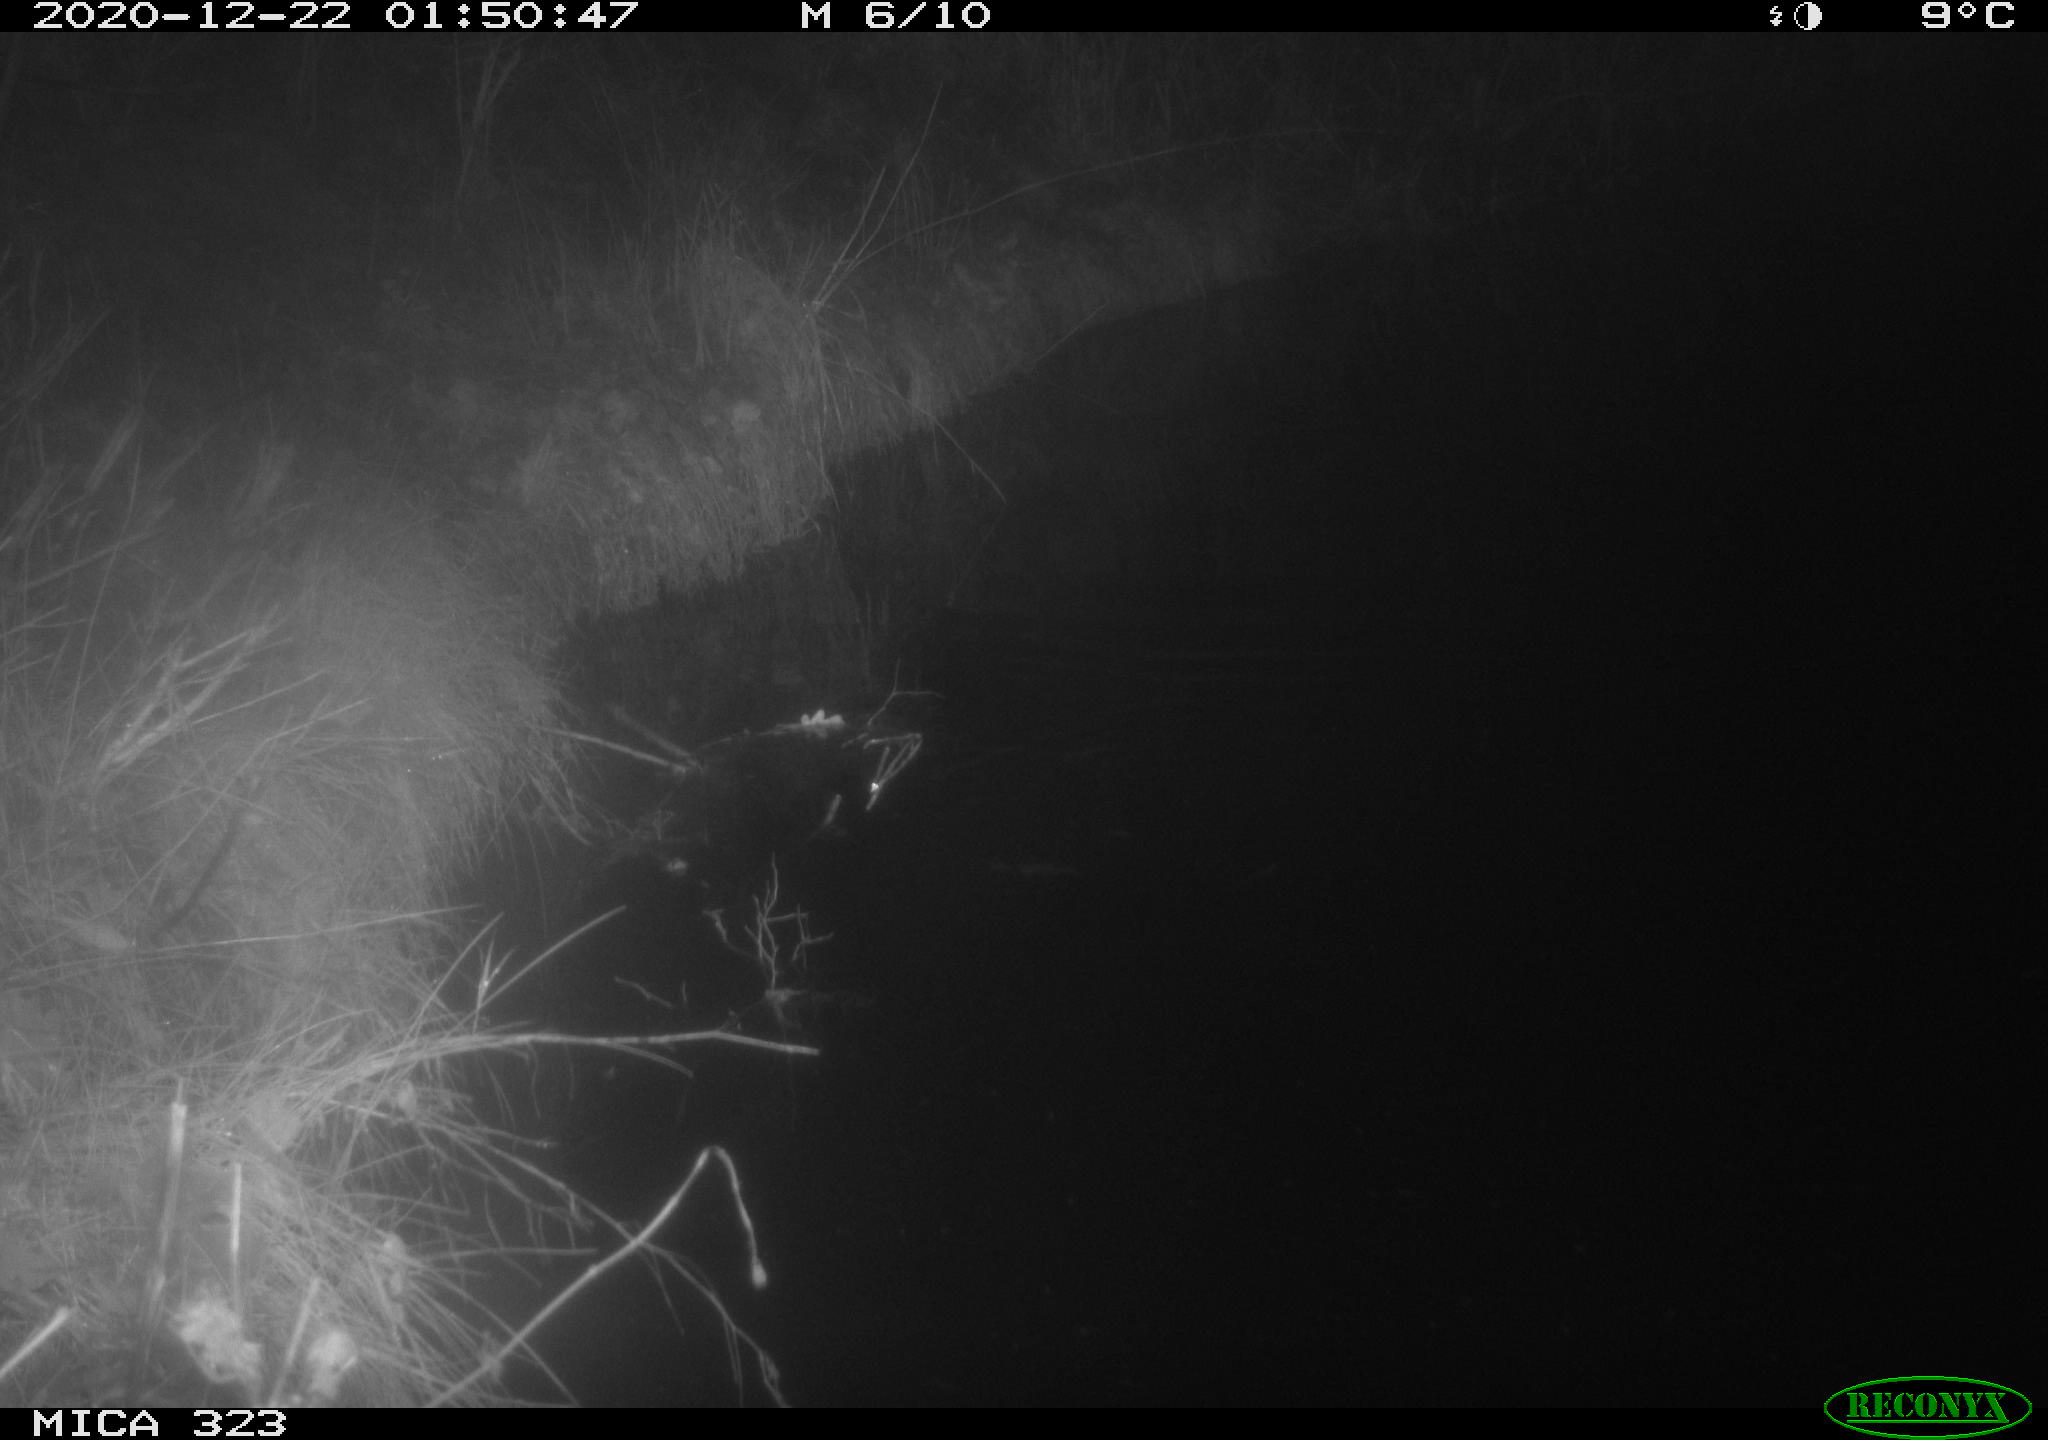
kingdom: Animalia
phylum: Chordata
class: Mammalia
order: Rodentia
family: Muridae
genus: Rattus
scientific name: Rattus norvegicus
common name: Brown rat
